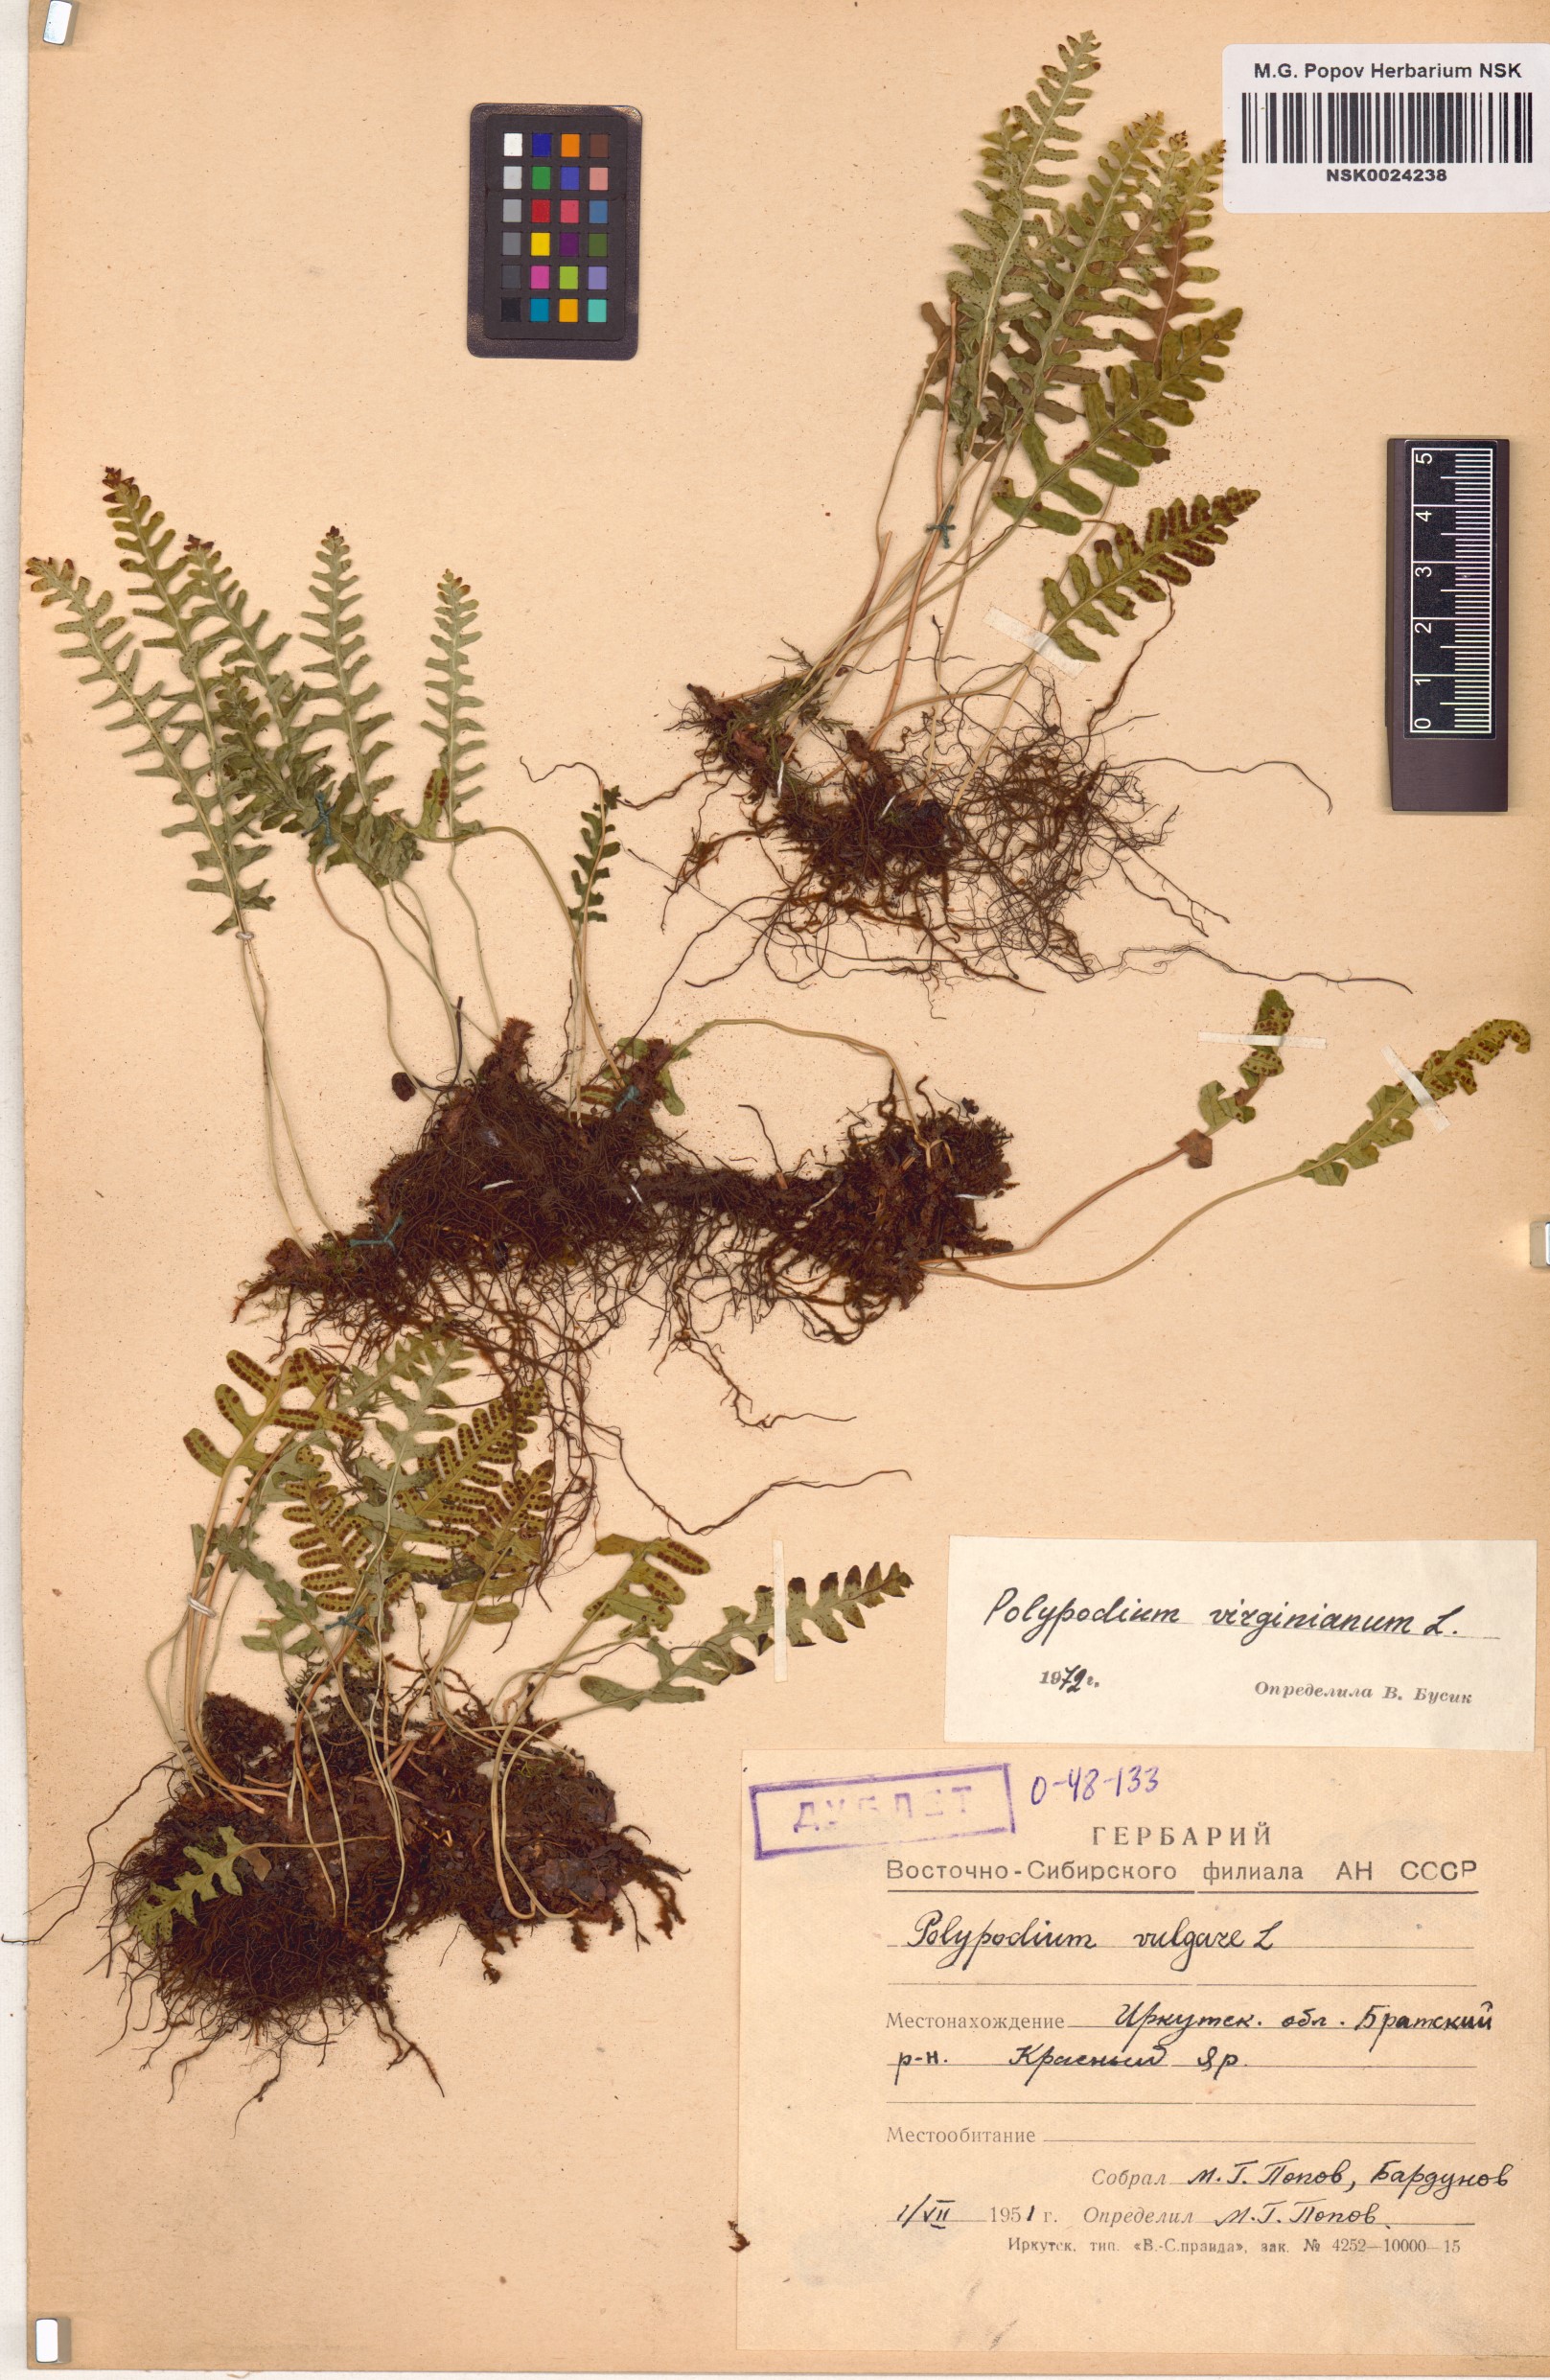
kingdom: Plantae
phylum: Tracheophyta
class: Polypodiopsida
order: Polypodiales
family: Polypodiaceae
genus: Polypodium
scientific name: Polypodium virginianum
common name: American wall fern
